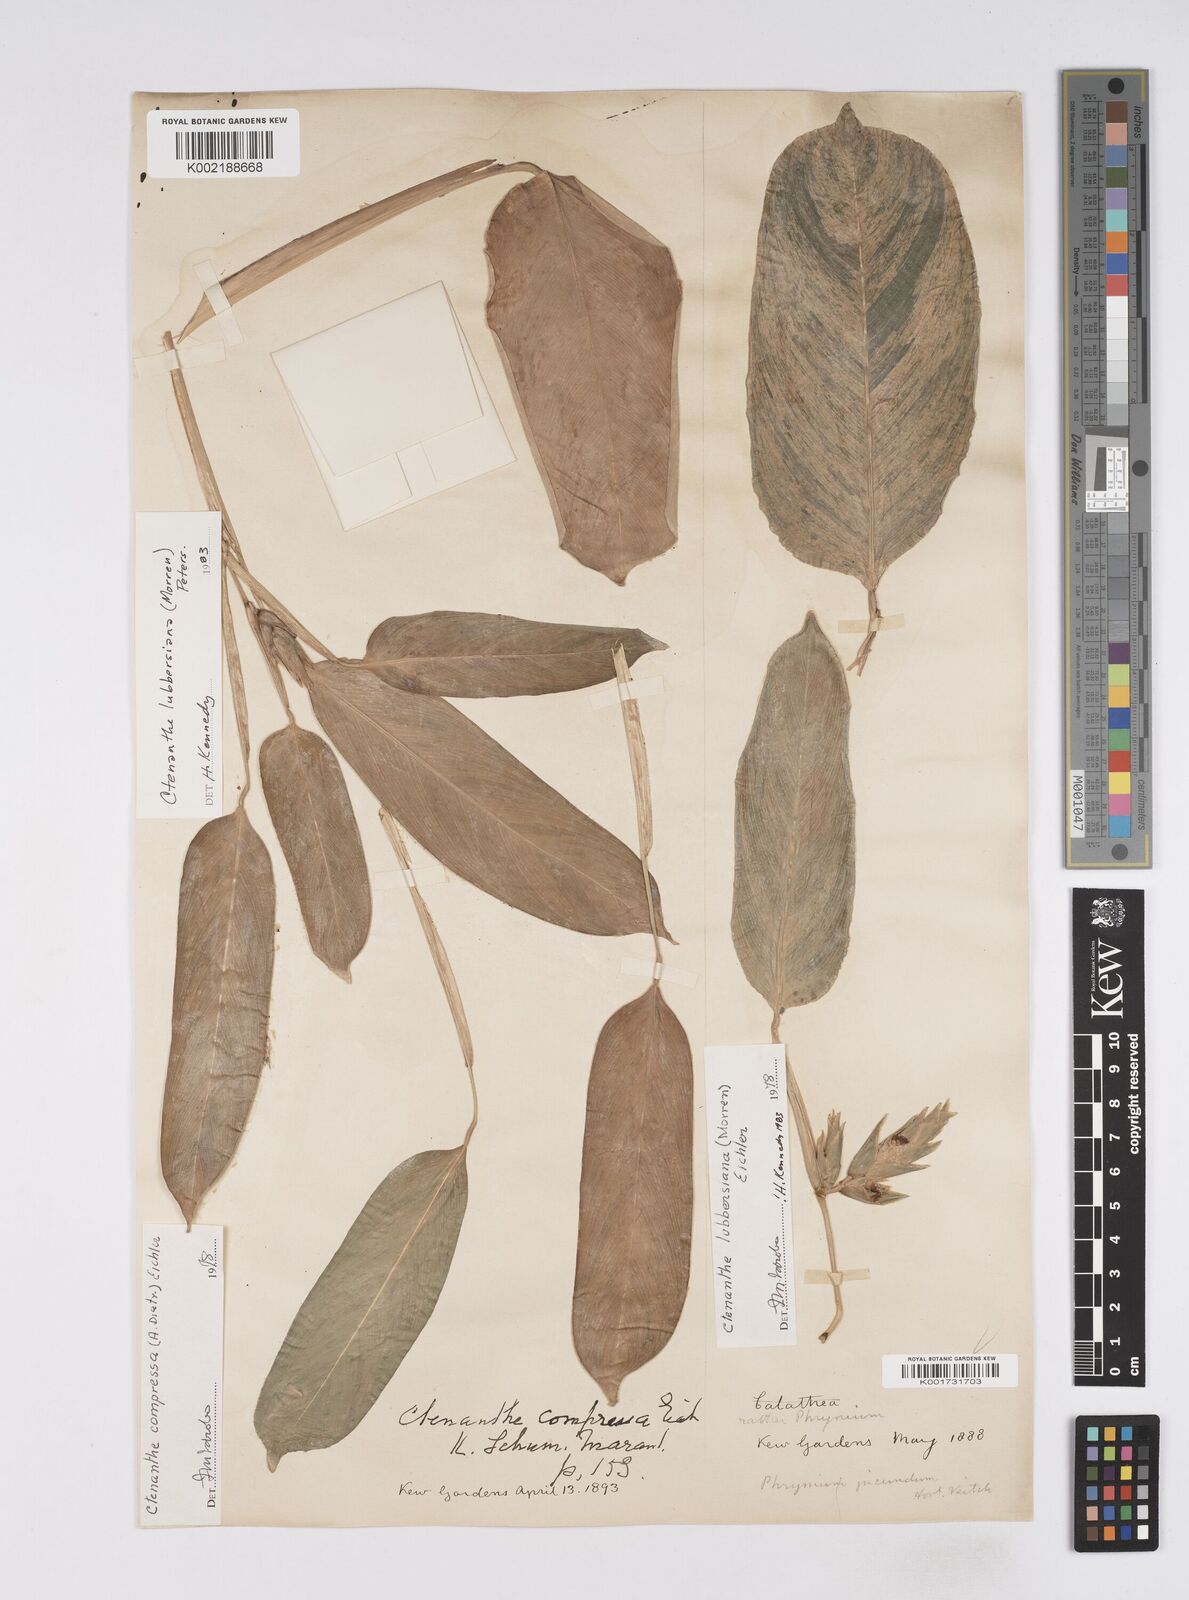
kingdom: Plantae
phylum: Tracheophyta
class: Liliopsida
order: Zingiberales
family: Marantaceae
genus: Ctenanthe
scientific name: Ctenanthe lubbersiana
